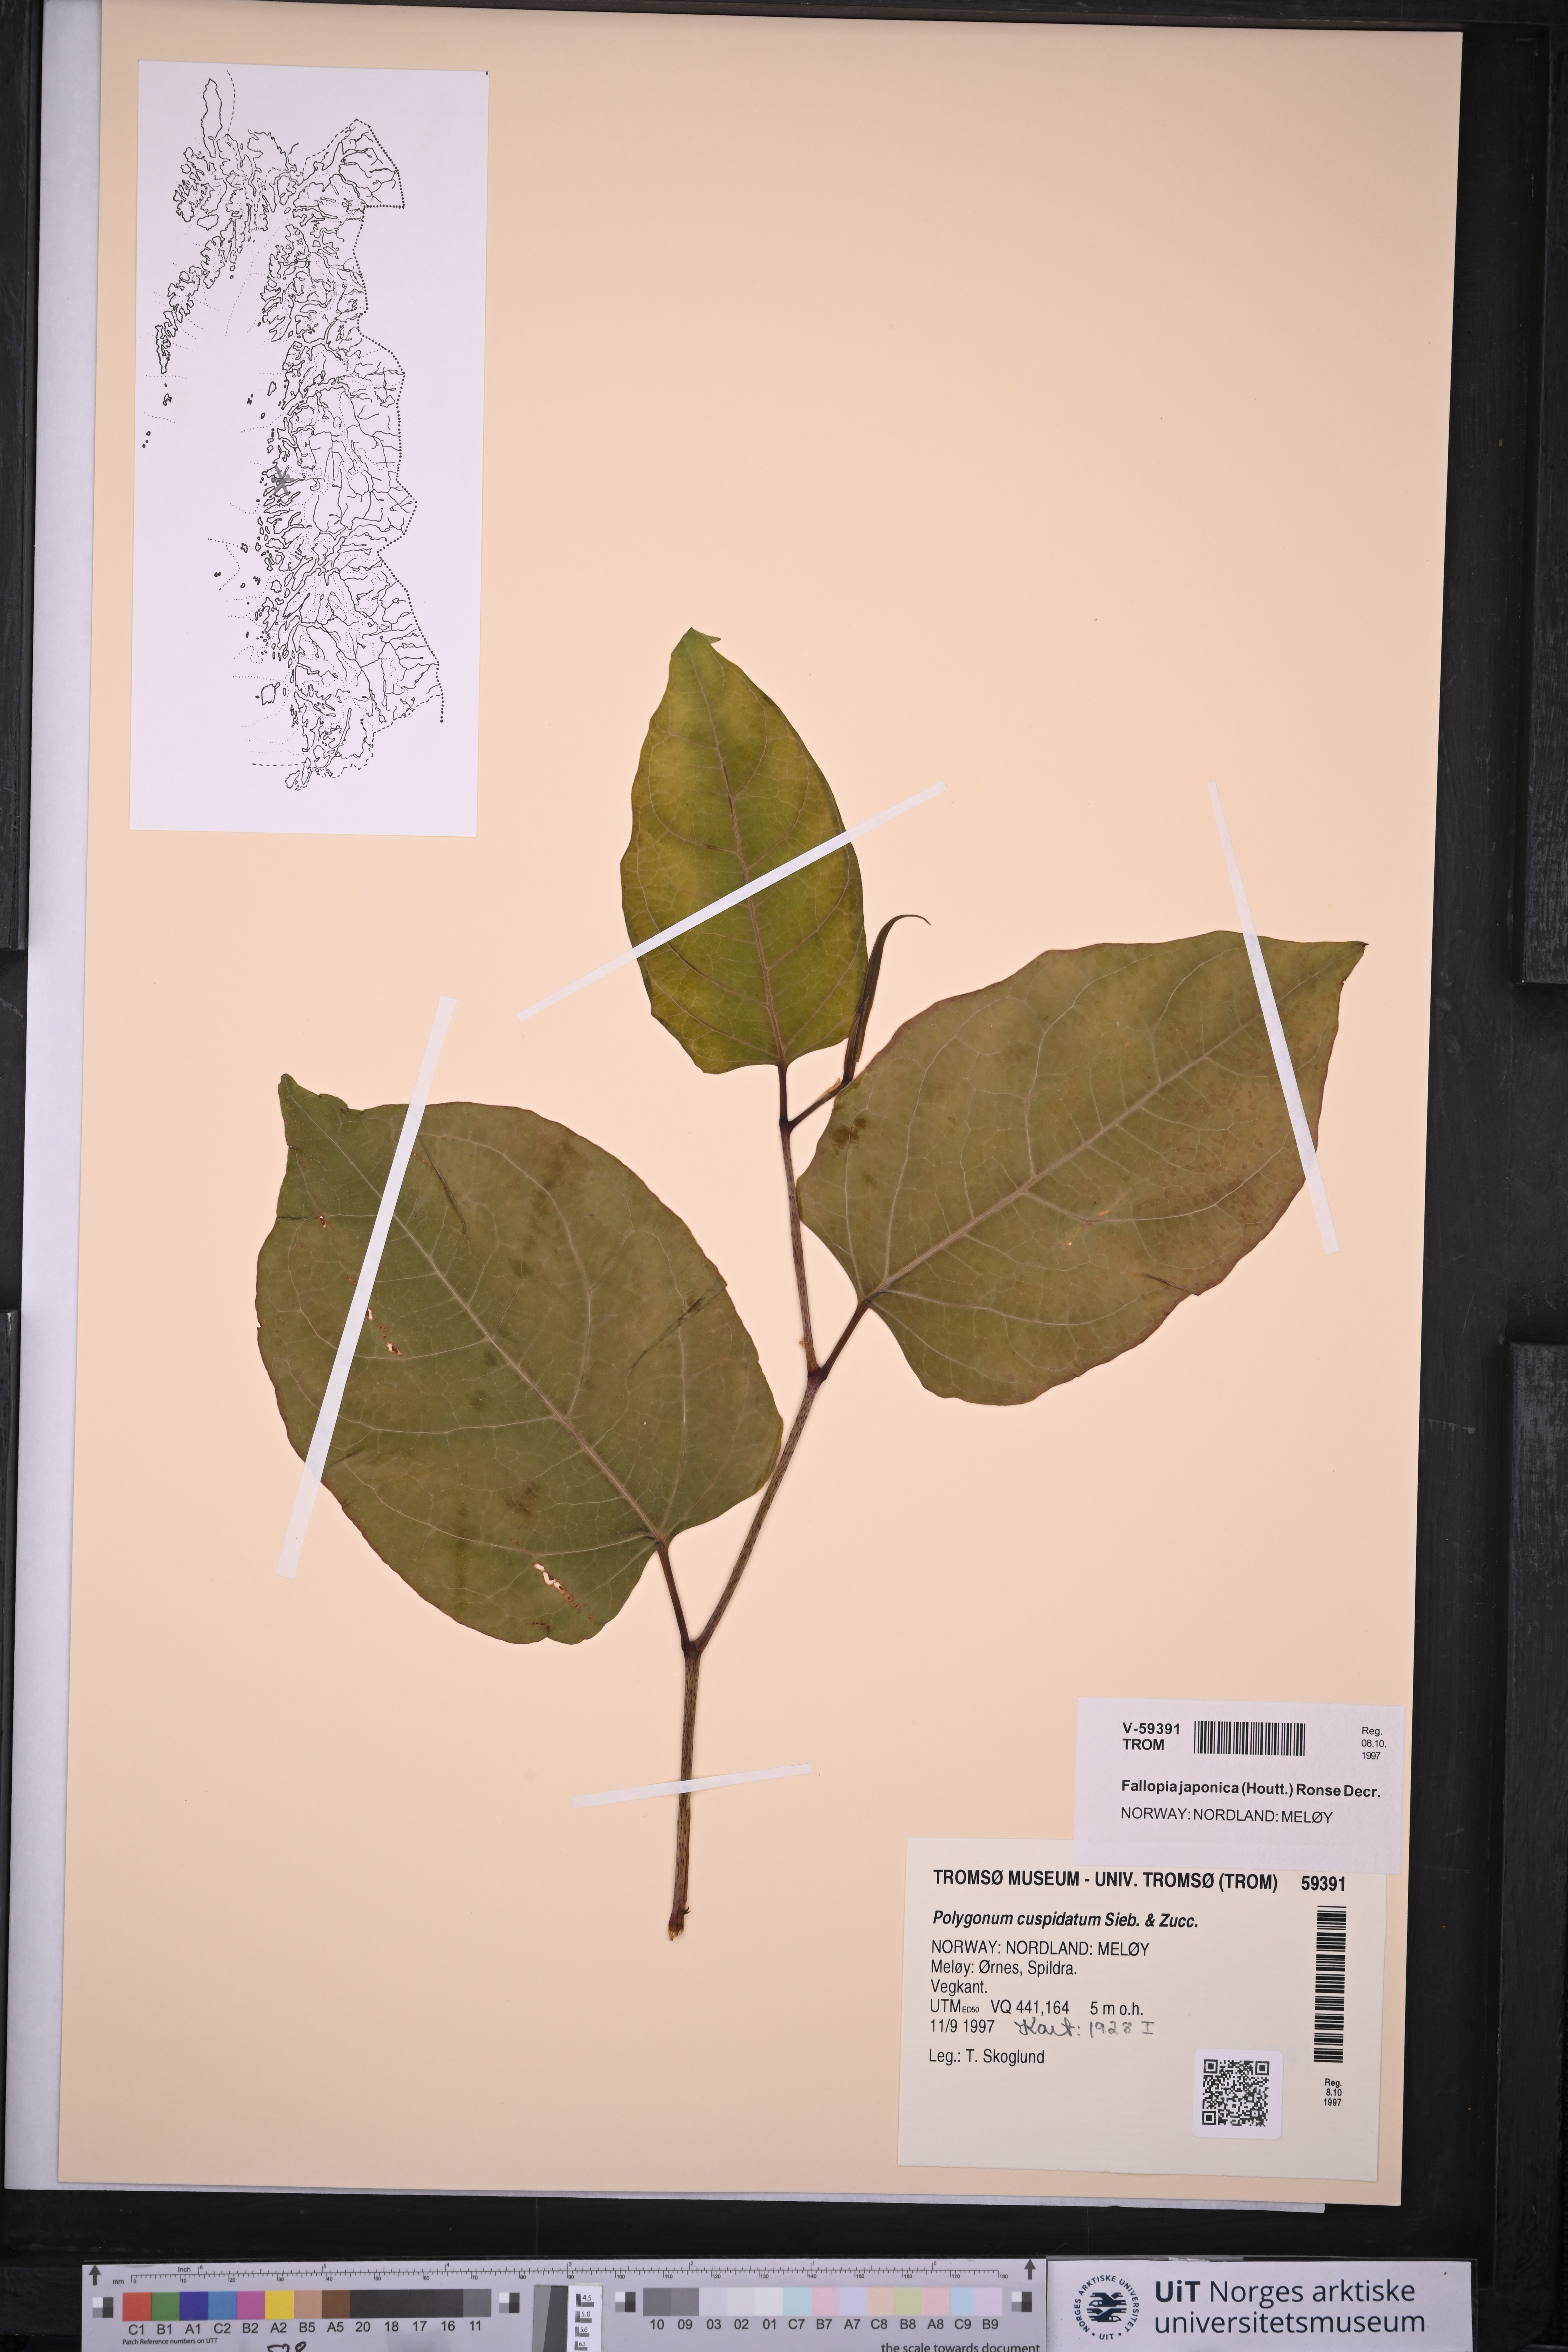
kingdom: Plantae
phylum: Tracheophyta
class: Magnoliopsida
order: Caryophyllales
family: Polygonaceae
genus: Reynoutria
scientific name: Reynoutria japonica
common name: Japanese knotweed
